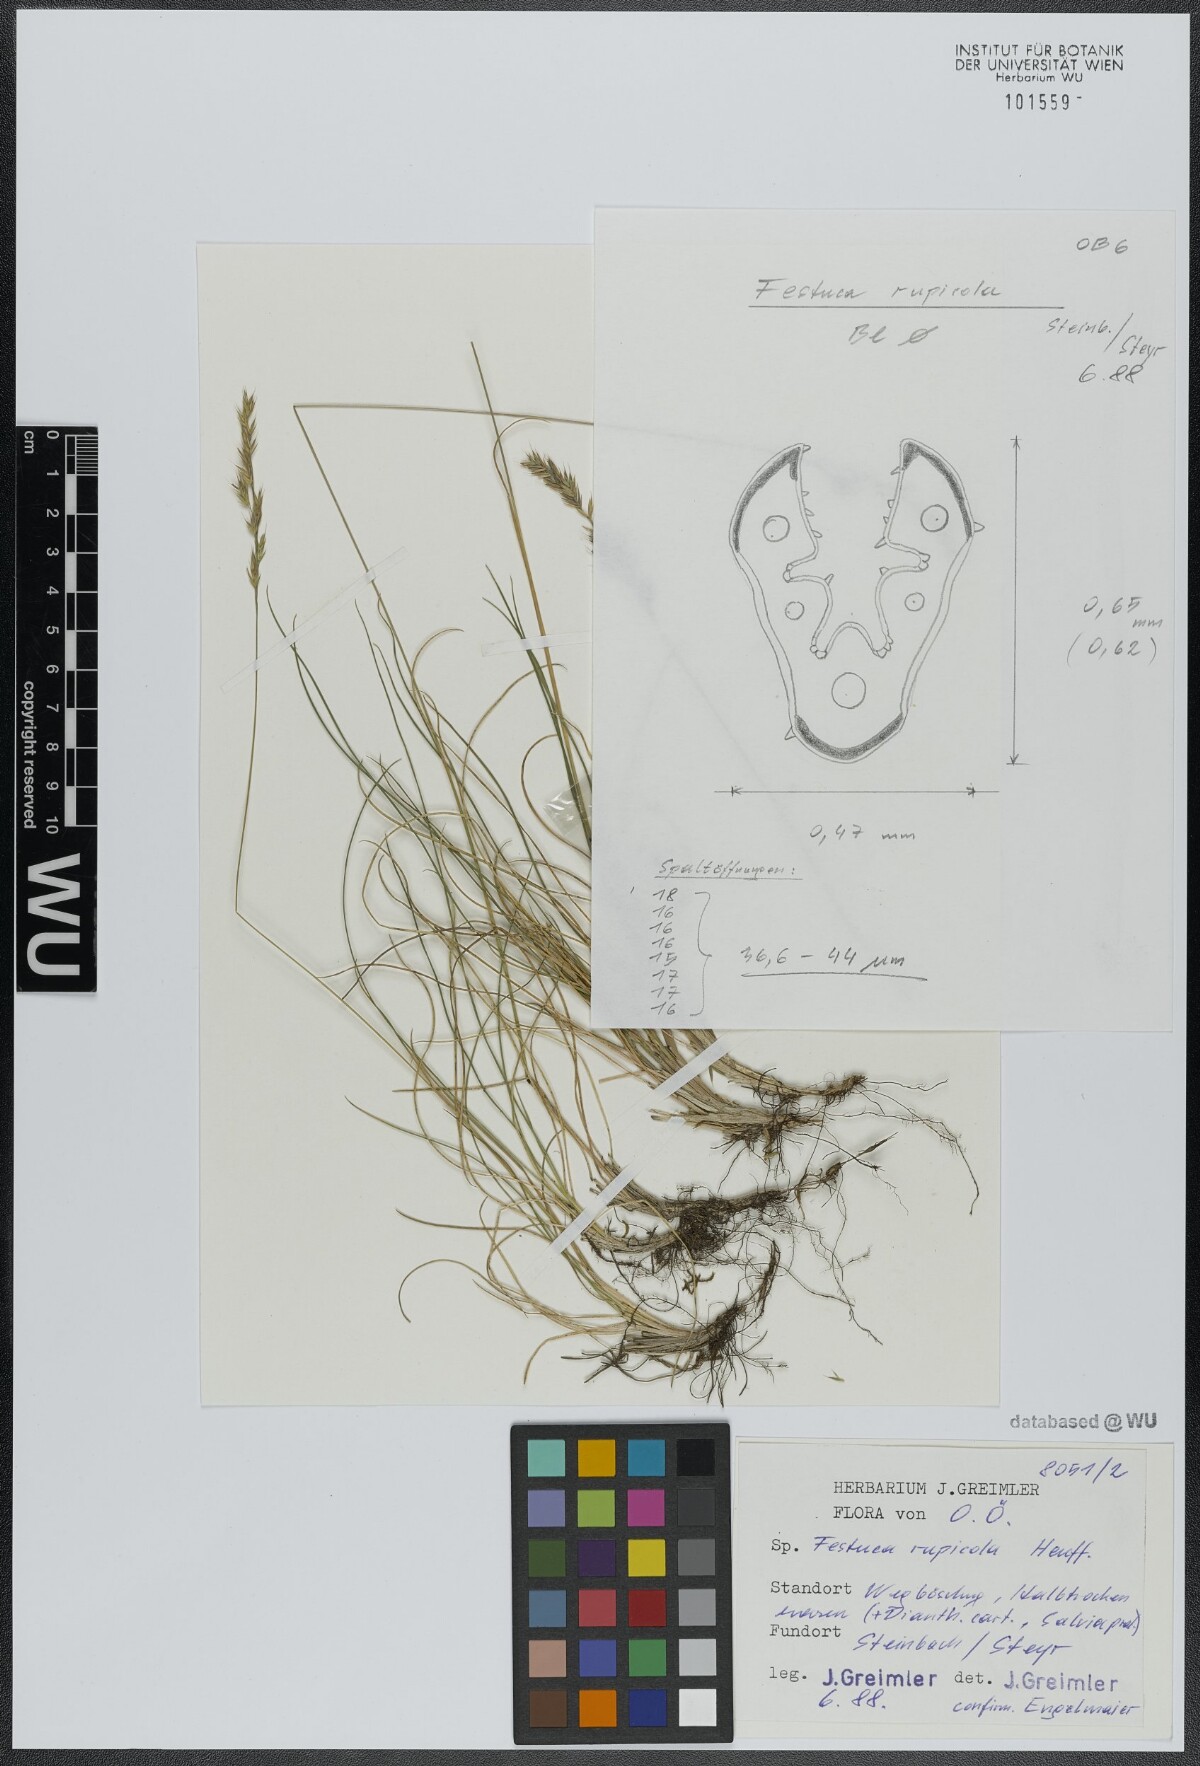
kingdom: Plantae
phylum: Tracheophyta
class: Liliopsida
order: Poales
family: Poaceae
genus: Festuca
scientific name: Festuca rupicola
